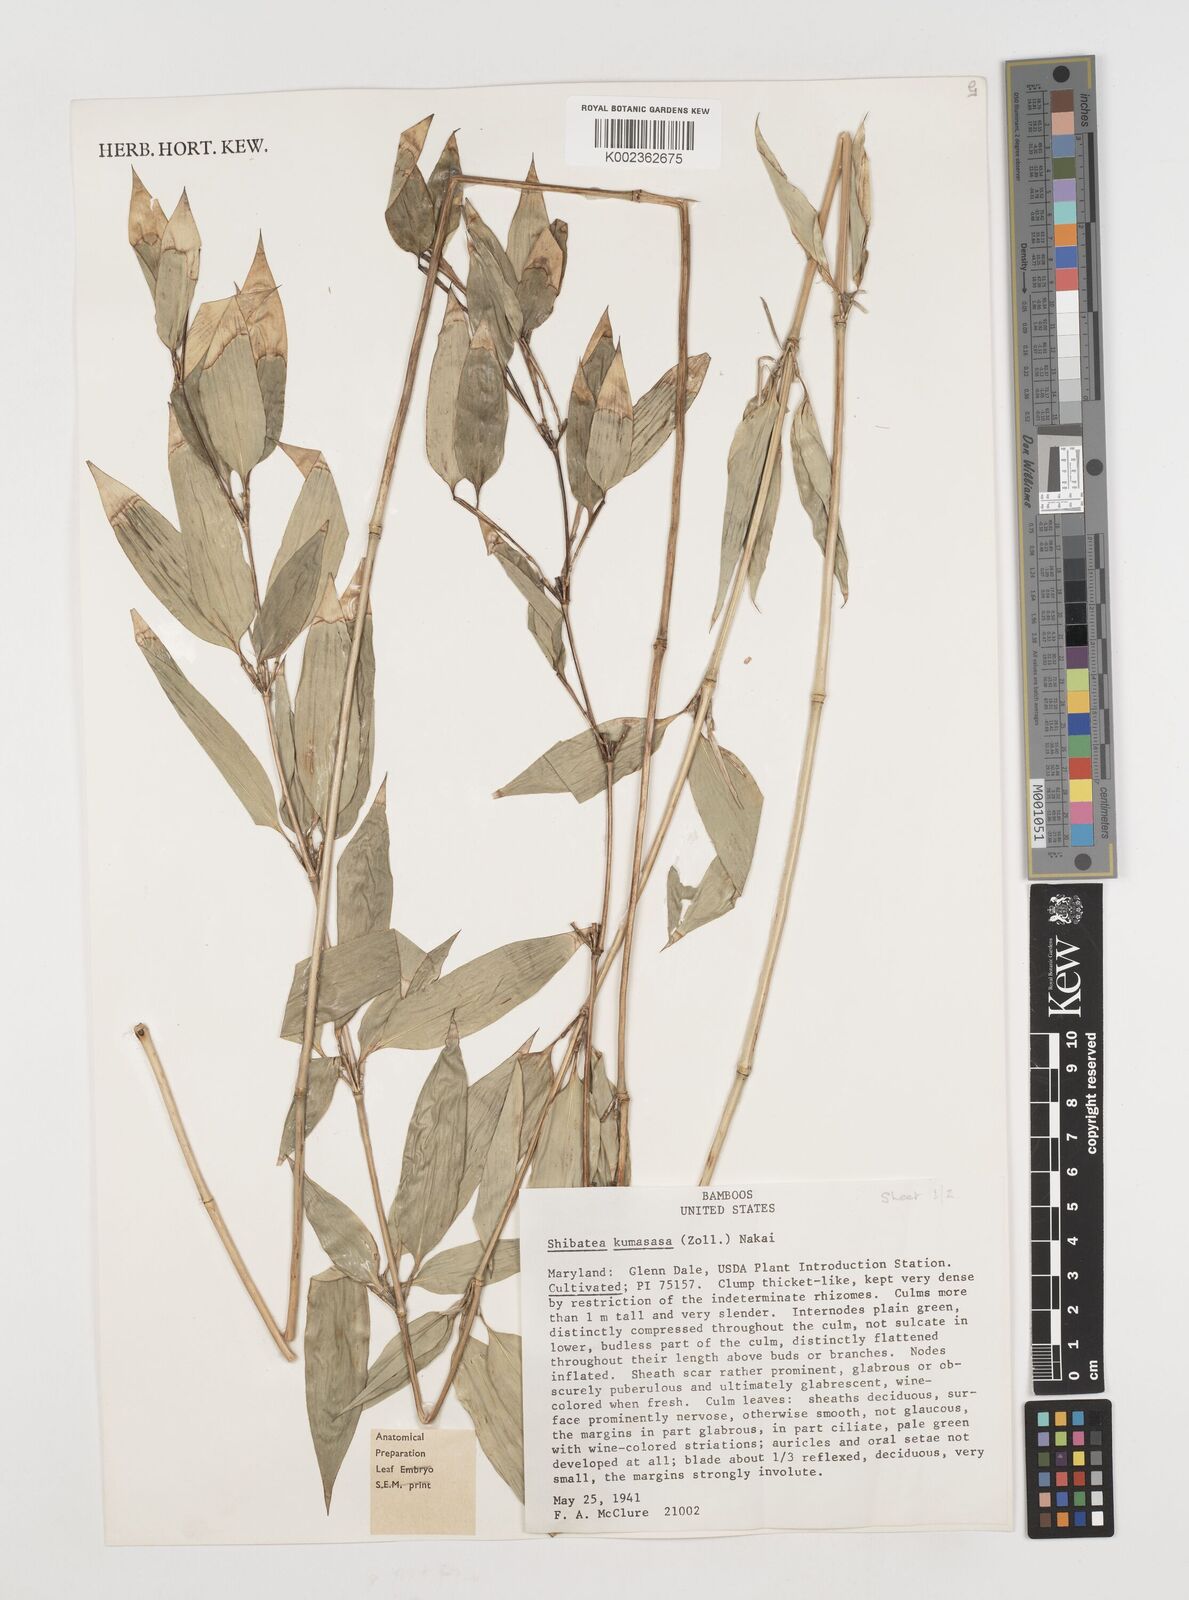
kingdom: Plantae
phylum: Tracheophyta
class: Liliopsida
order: Poales
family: Poaceae
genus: Shibataea
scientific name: Shibataea kumasasa
